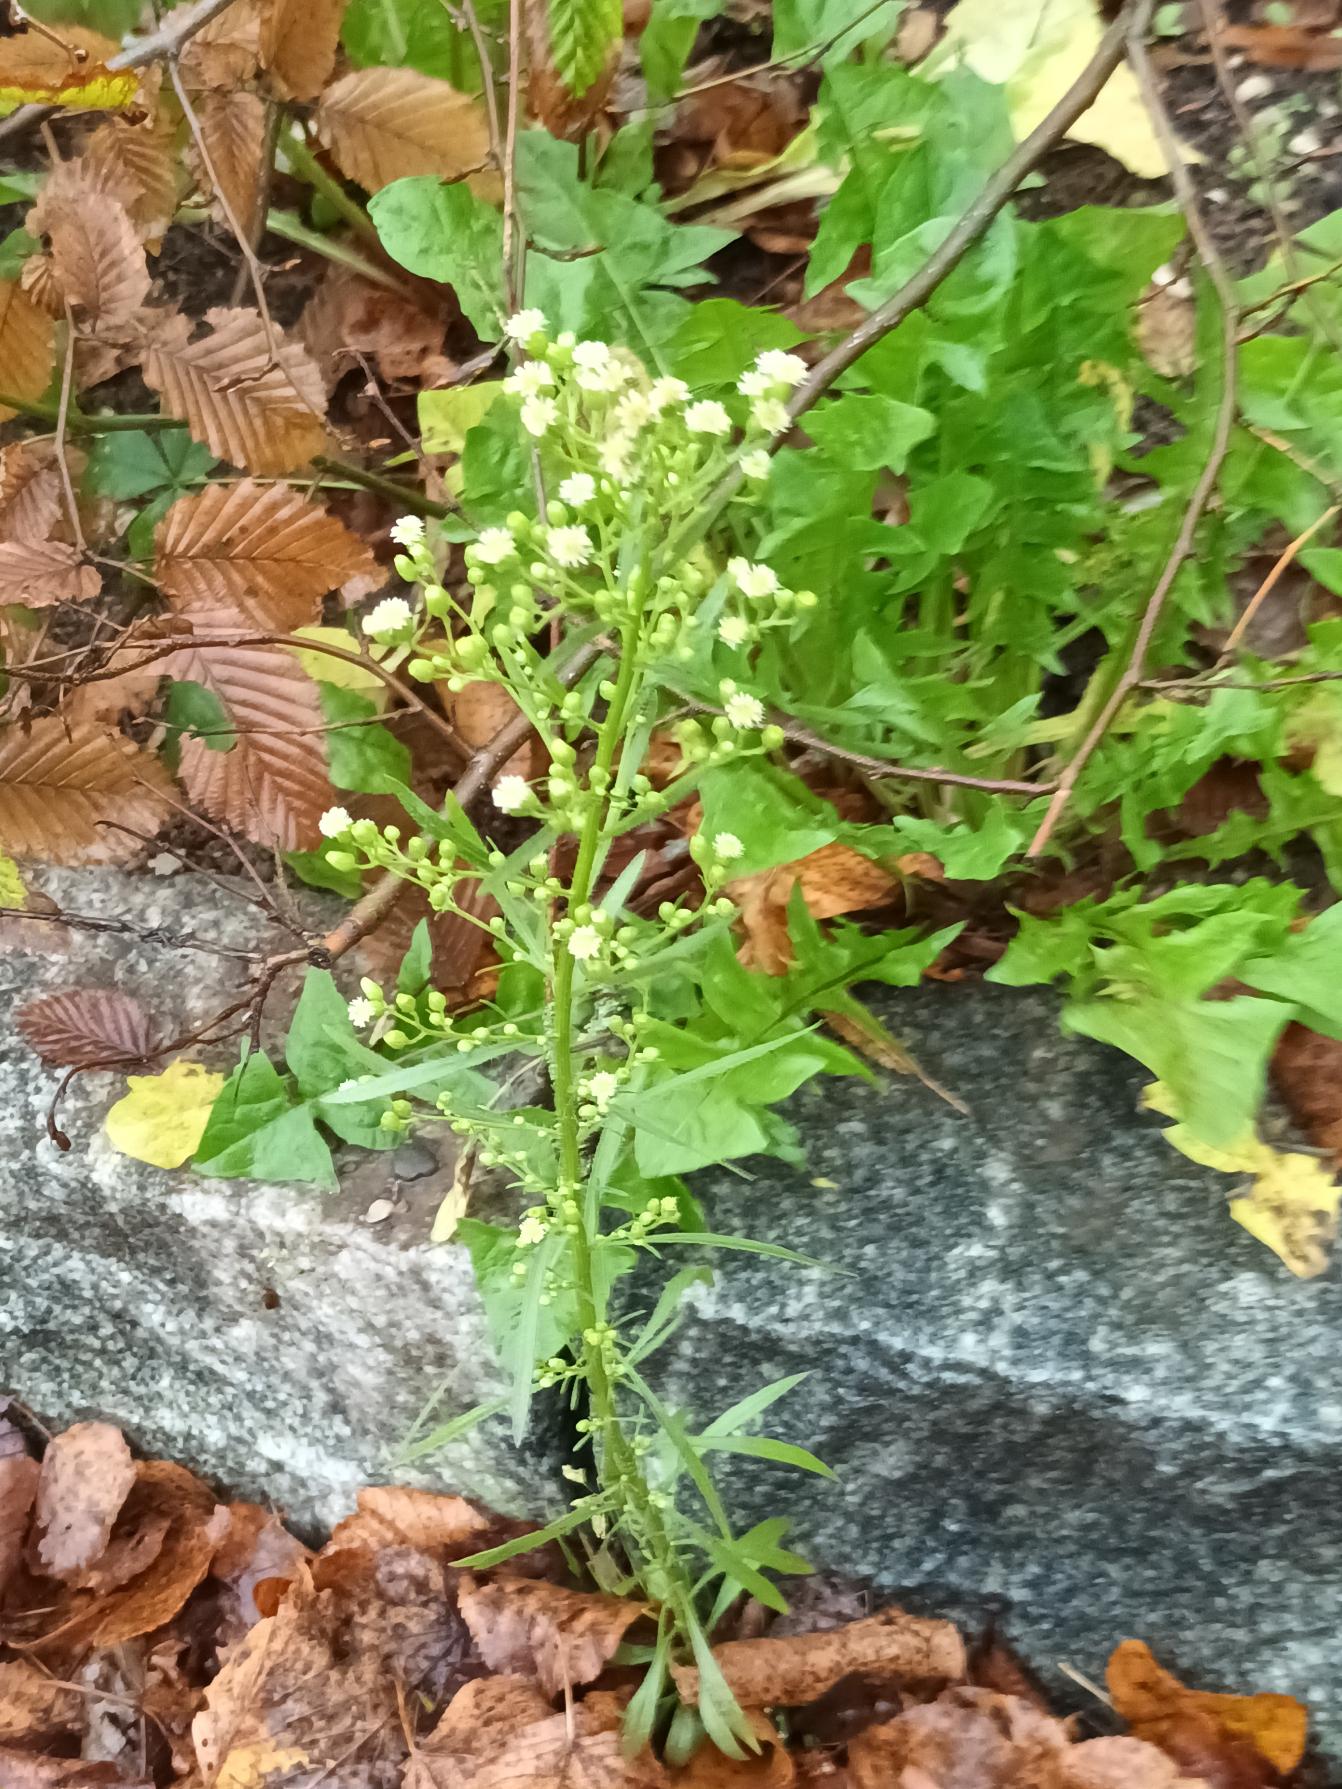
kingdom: Plantae
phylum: Tracheophyta
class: Magnoliopsida
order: Asterales
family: Asteraceae
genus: Erigeron
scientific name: Erigeron canadensis
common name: Kanadisk bakkestjerne
